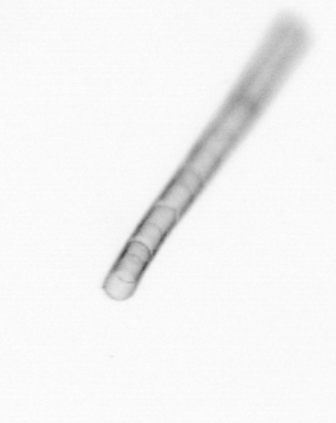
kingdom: Chromista
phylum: Ochrophyta
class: Bacillariophyceae
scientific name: Bacillariophyceae
